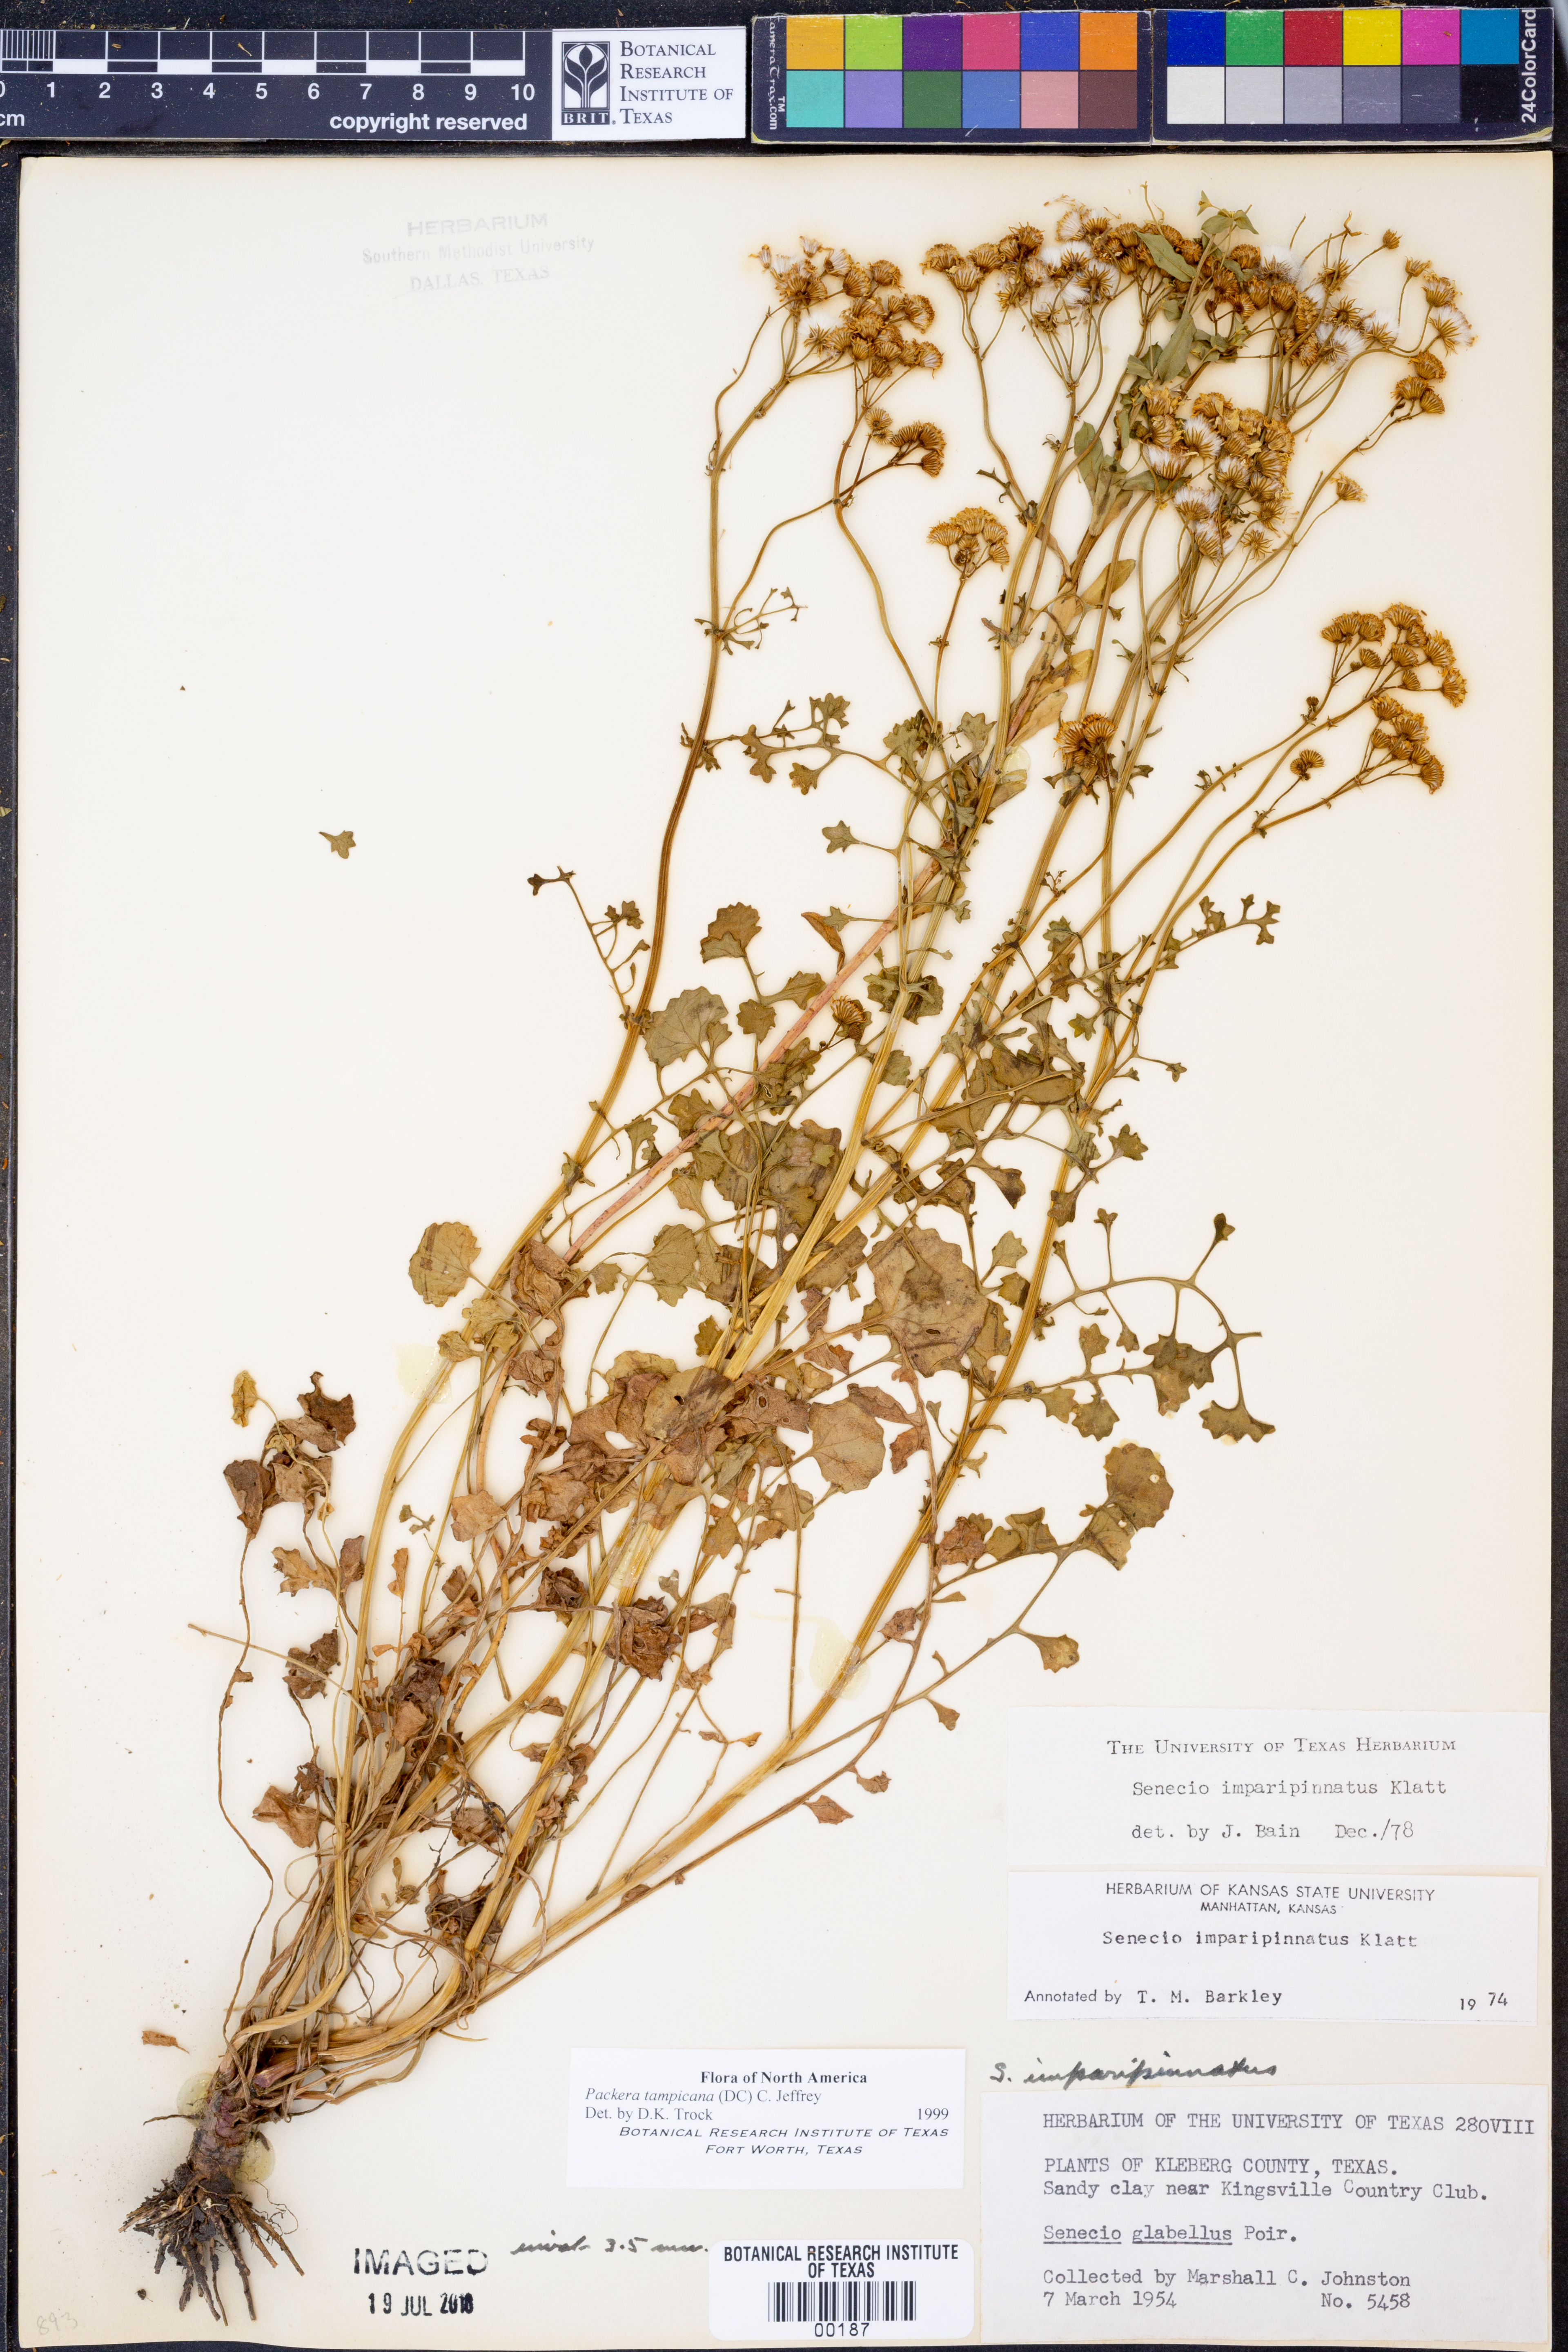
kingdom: Plantae
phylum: Tracheophyta
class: Magnoliopsida
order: Asterales
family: Asteraceae
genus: Packera
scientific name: Packera tampicana
